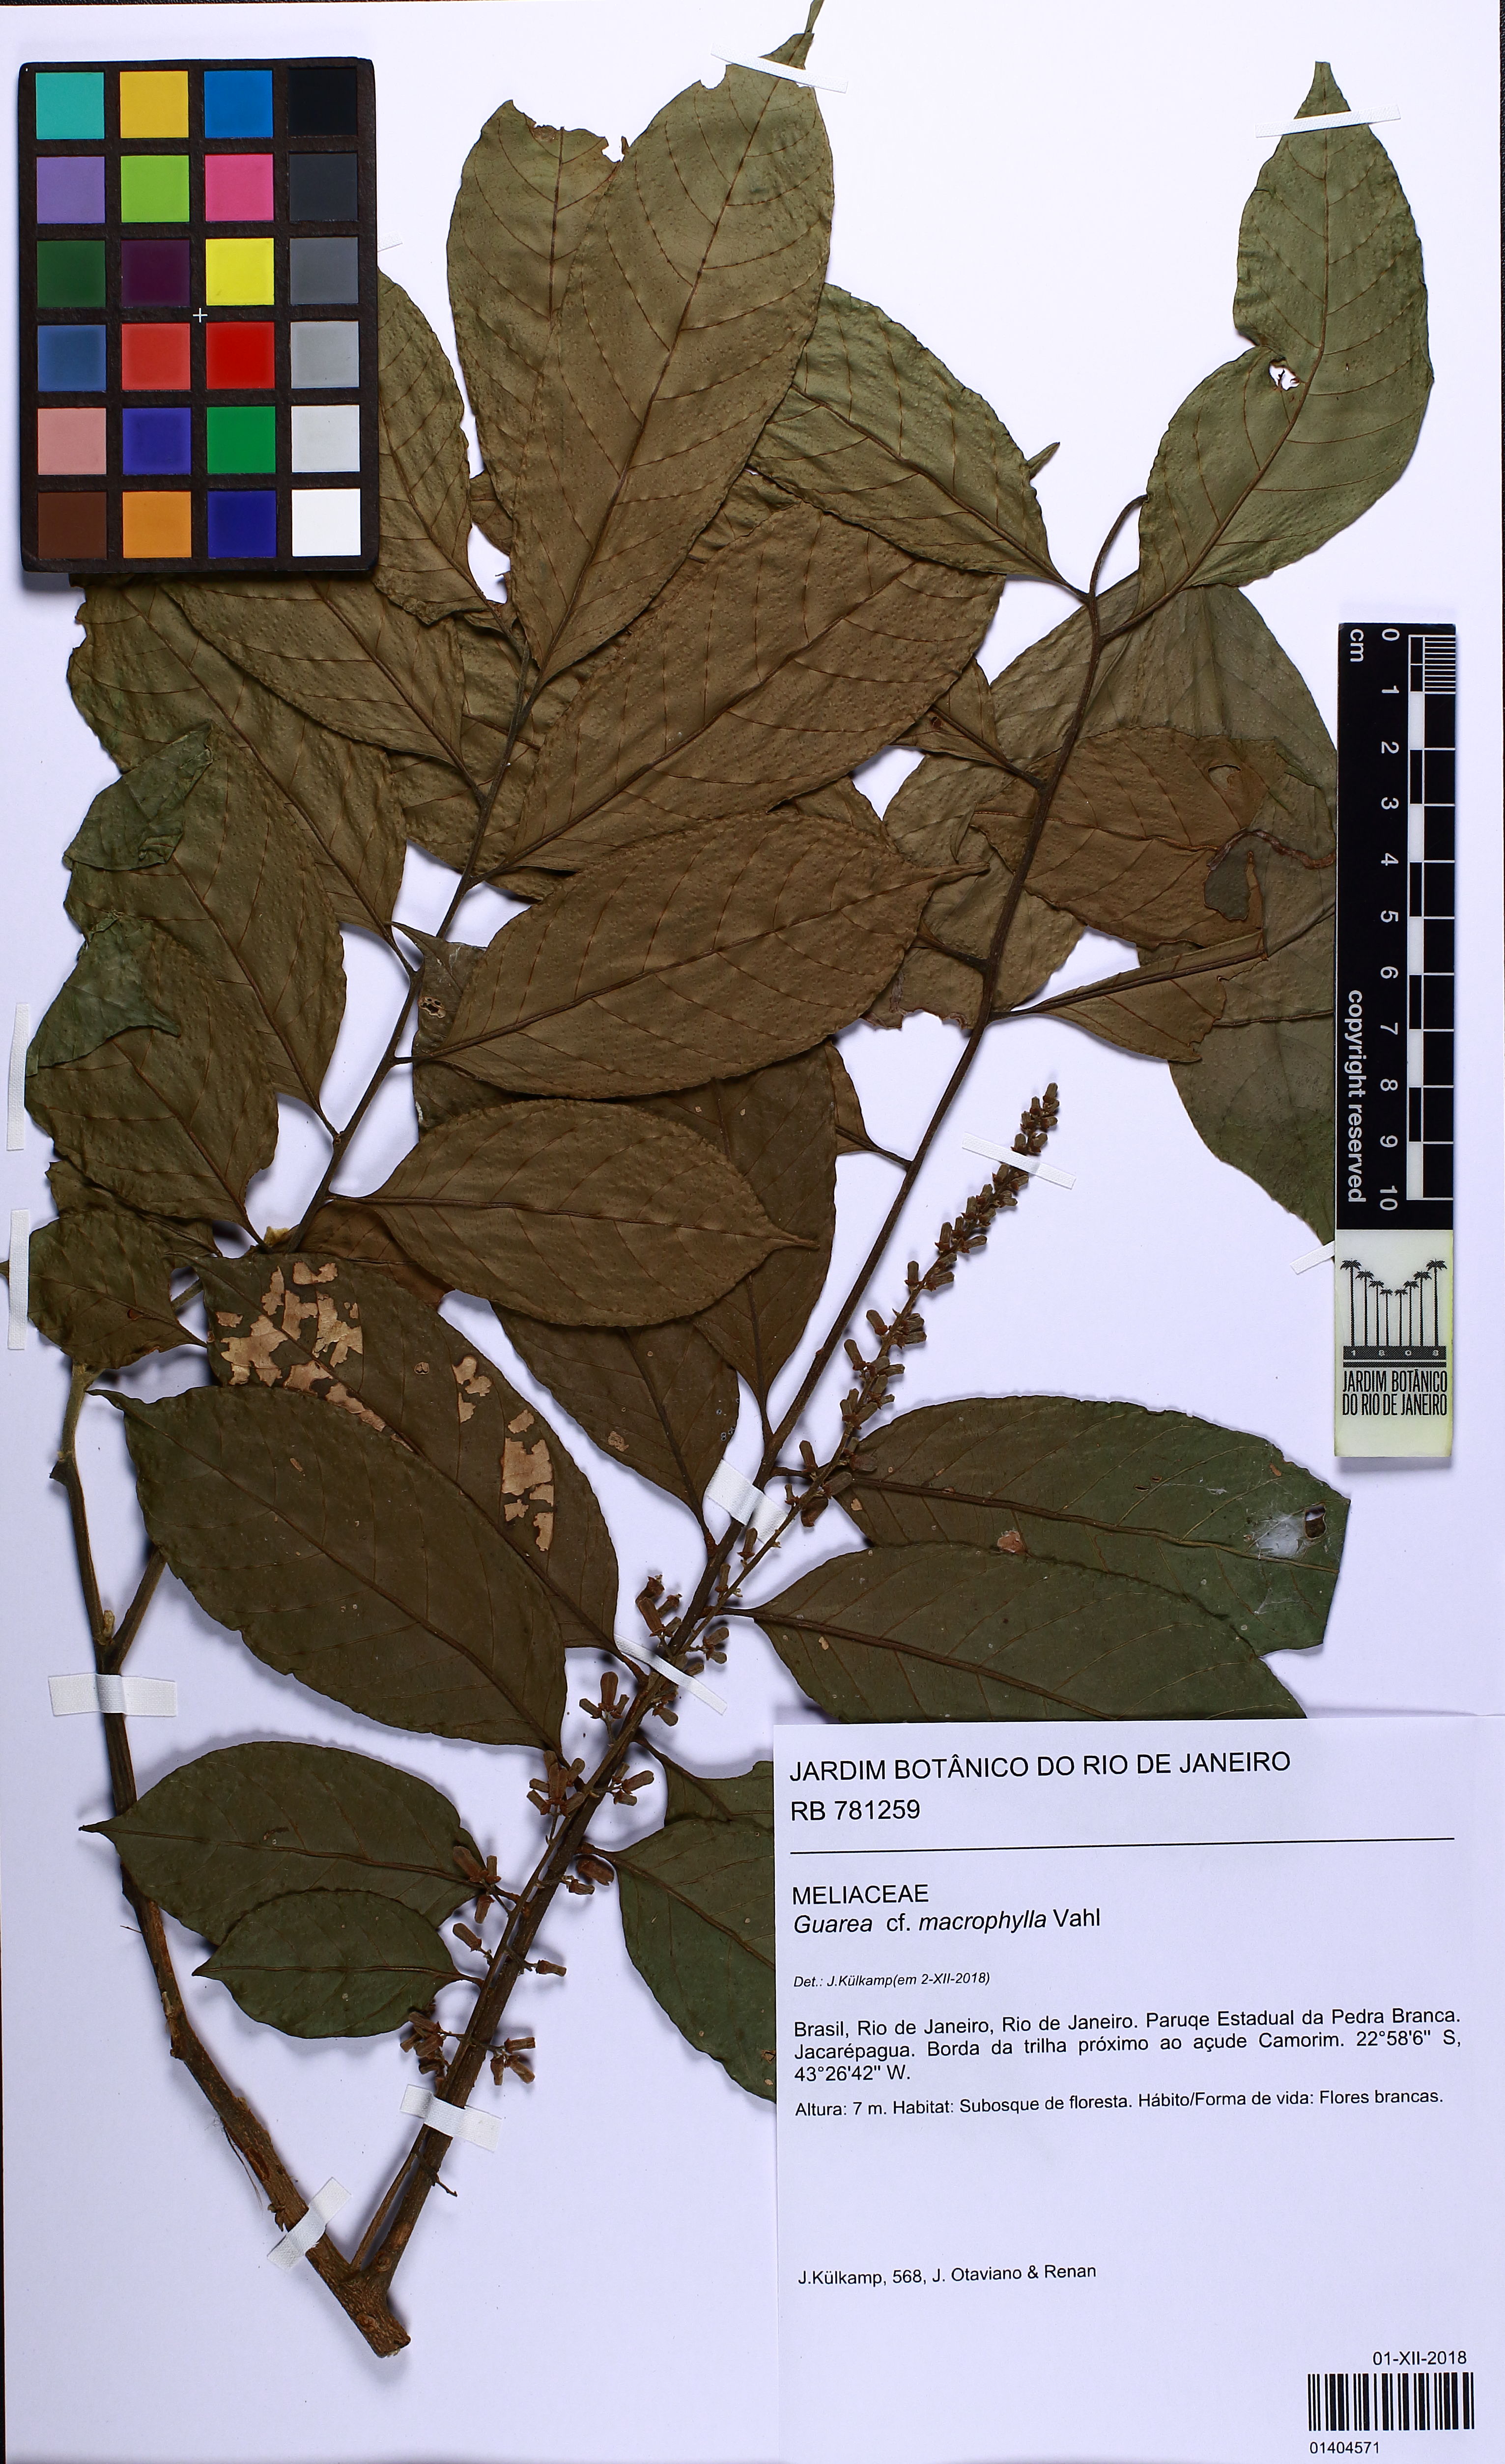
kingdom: Plantae
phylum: Tracheophyta
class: Magnoliopsida
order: Sapindales
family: Meliaceae
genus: Guarea
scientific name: Guarea macrophylla
